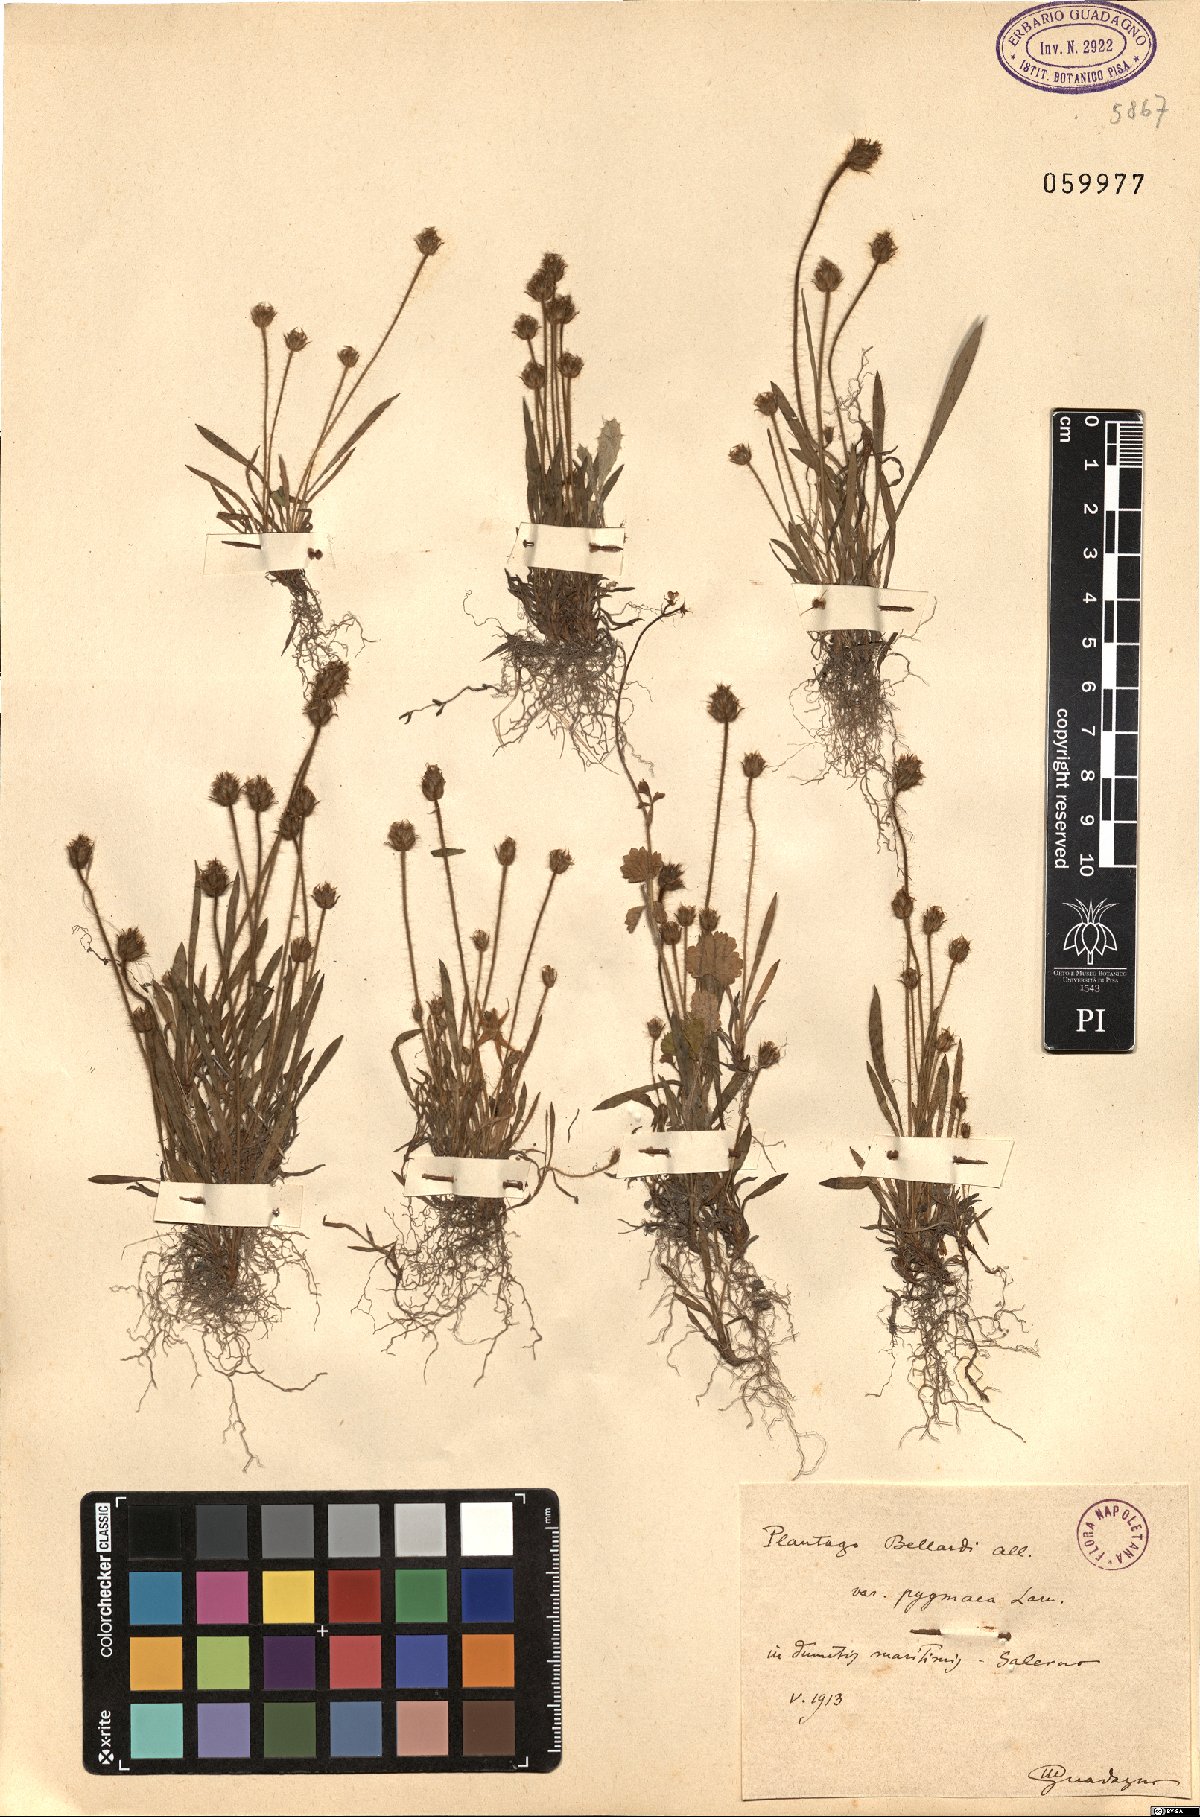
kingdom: Plantae
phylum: Tracheophyta
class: Magnoliopsida
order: Lamiales
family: Plantaginaceae
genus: Plantago
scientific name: Plantago bellardii
